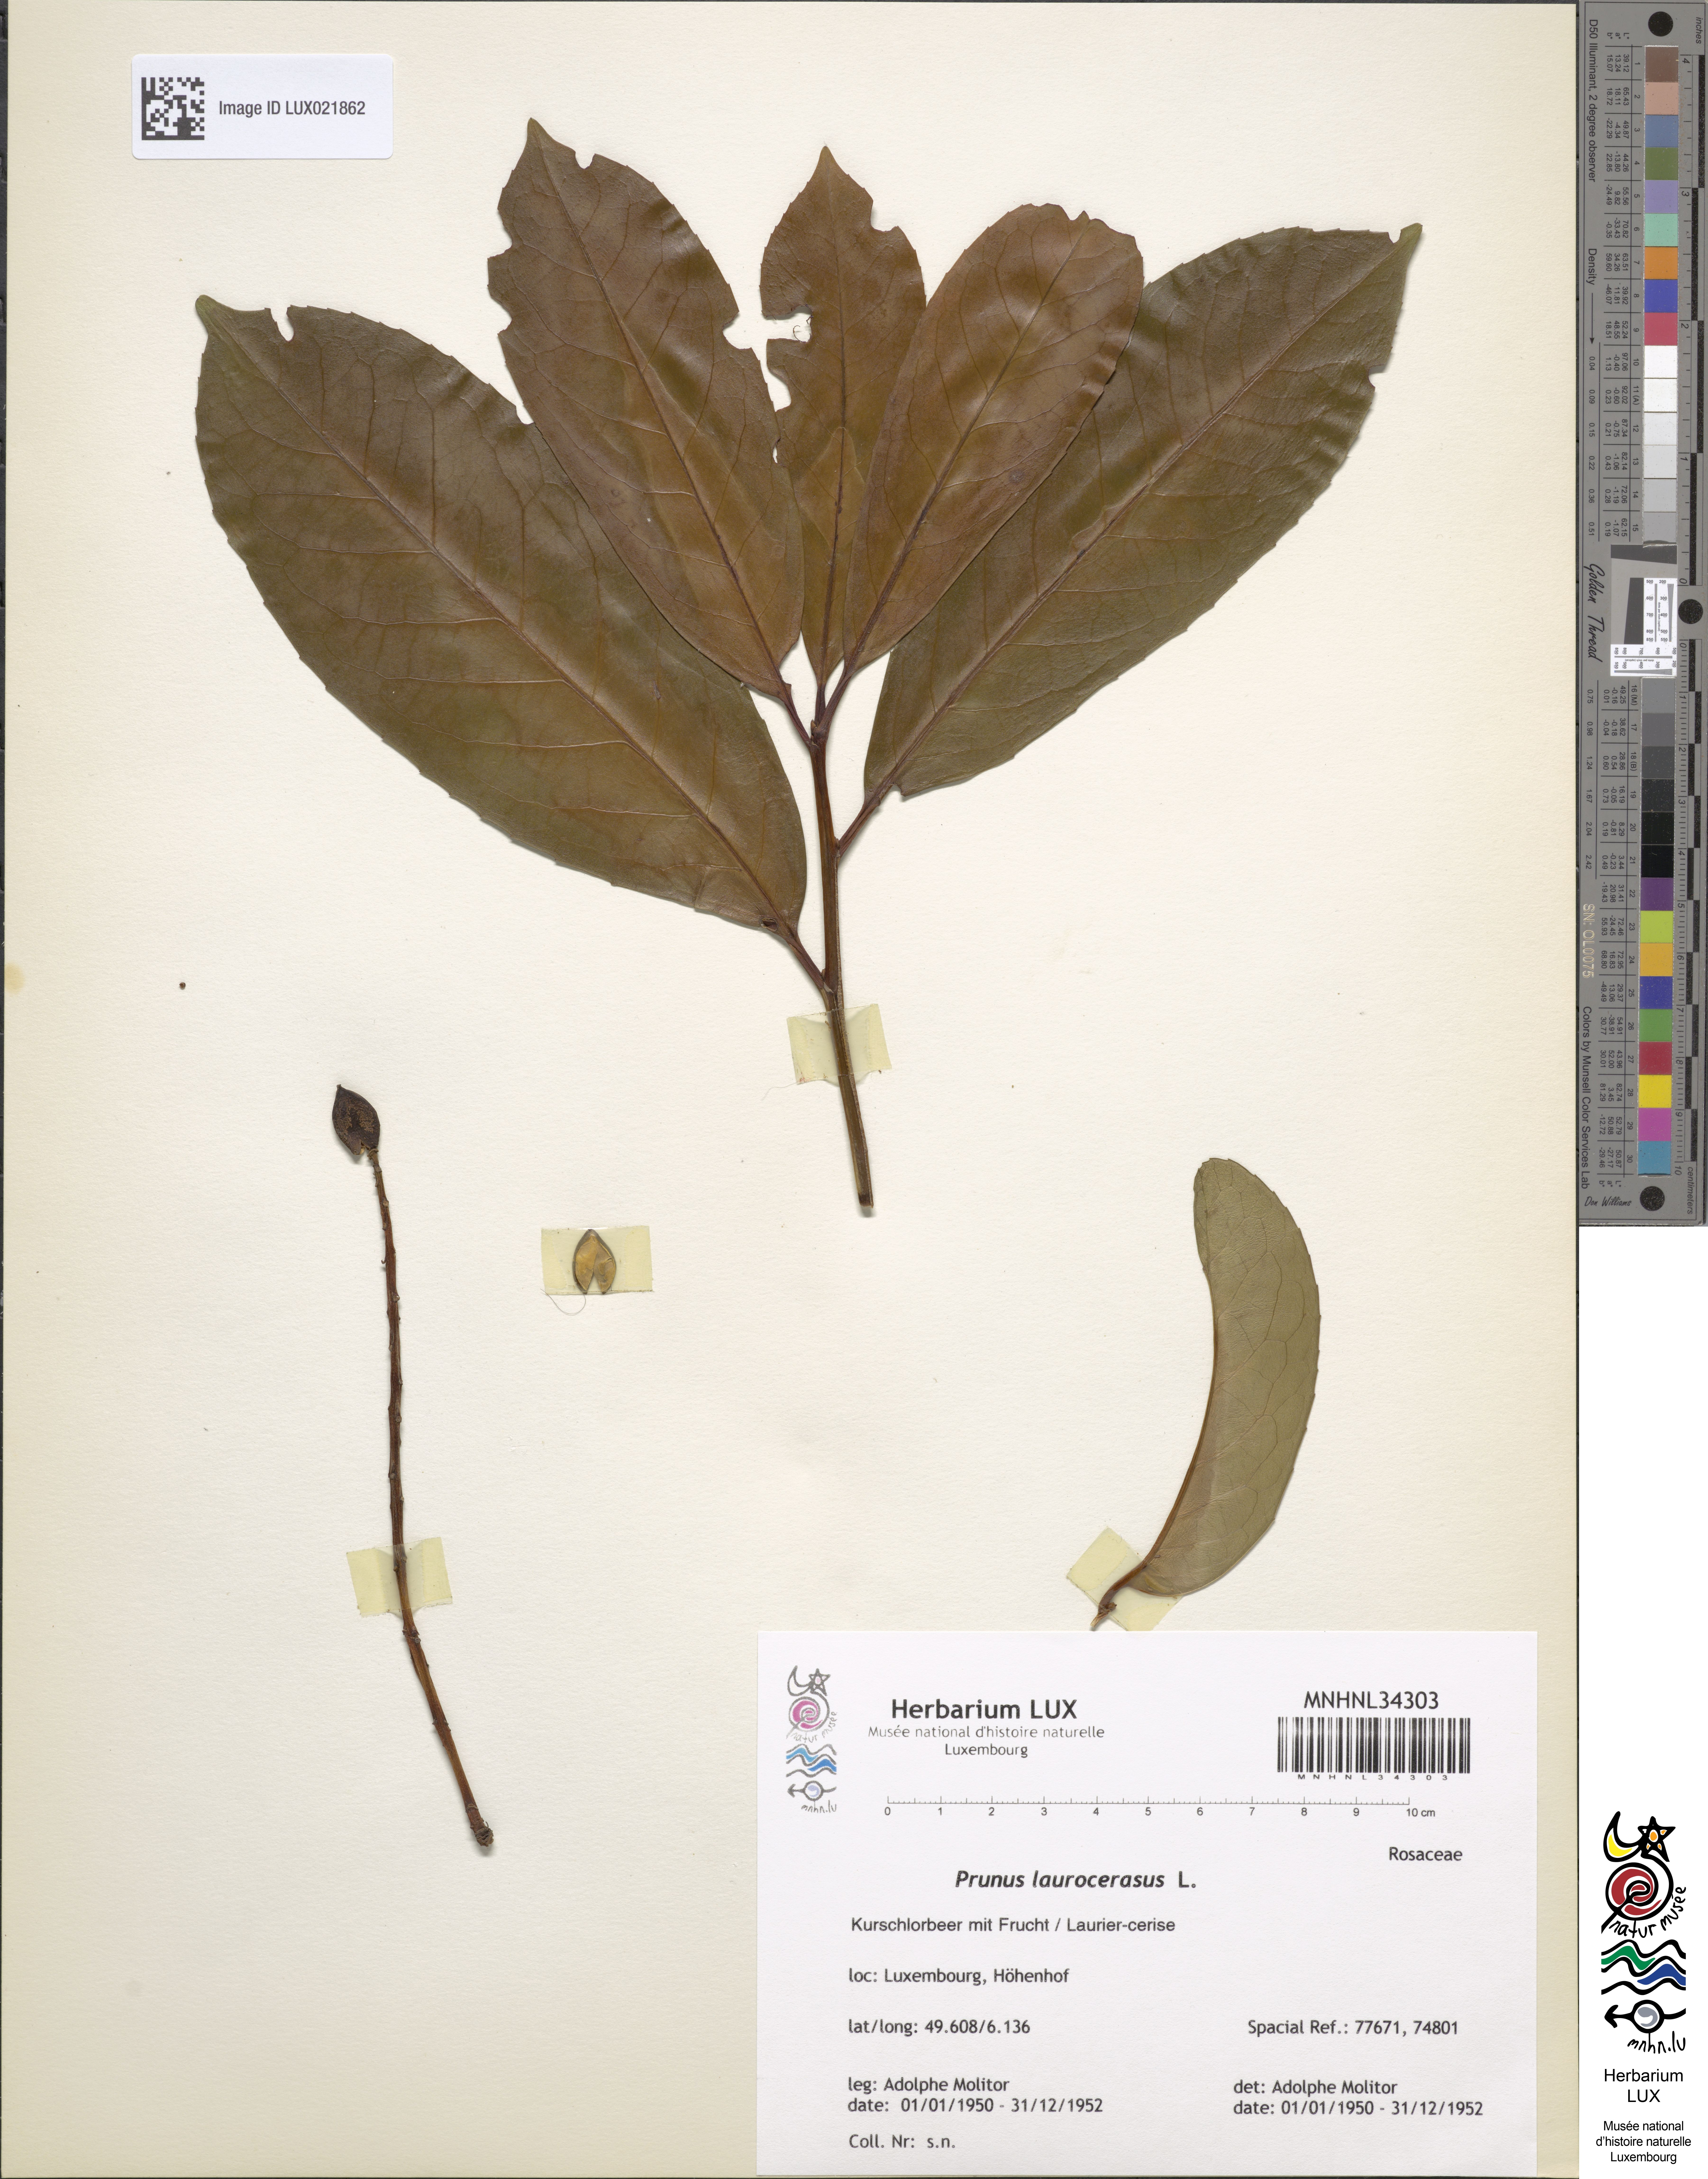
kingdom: Plantae
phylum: Tracheophyta
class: Magnoliopsida
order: Rosales
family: Rosaceae
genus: Prunus
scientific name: Prunus laurocerasus
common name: Cherry laurel
